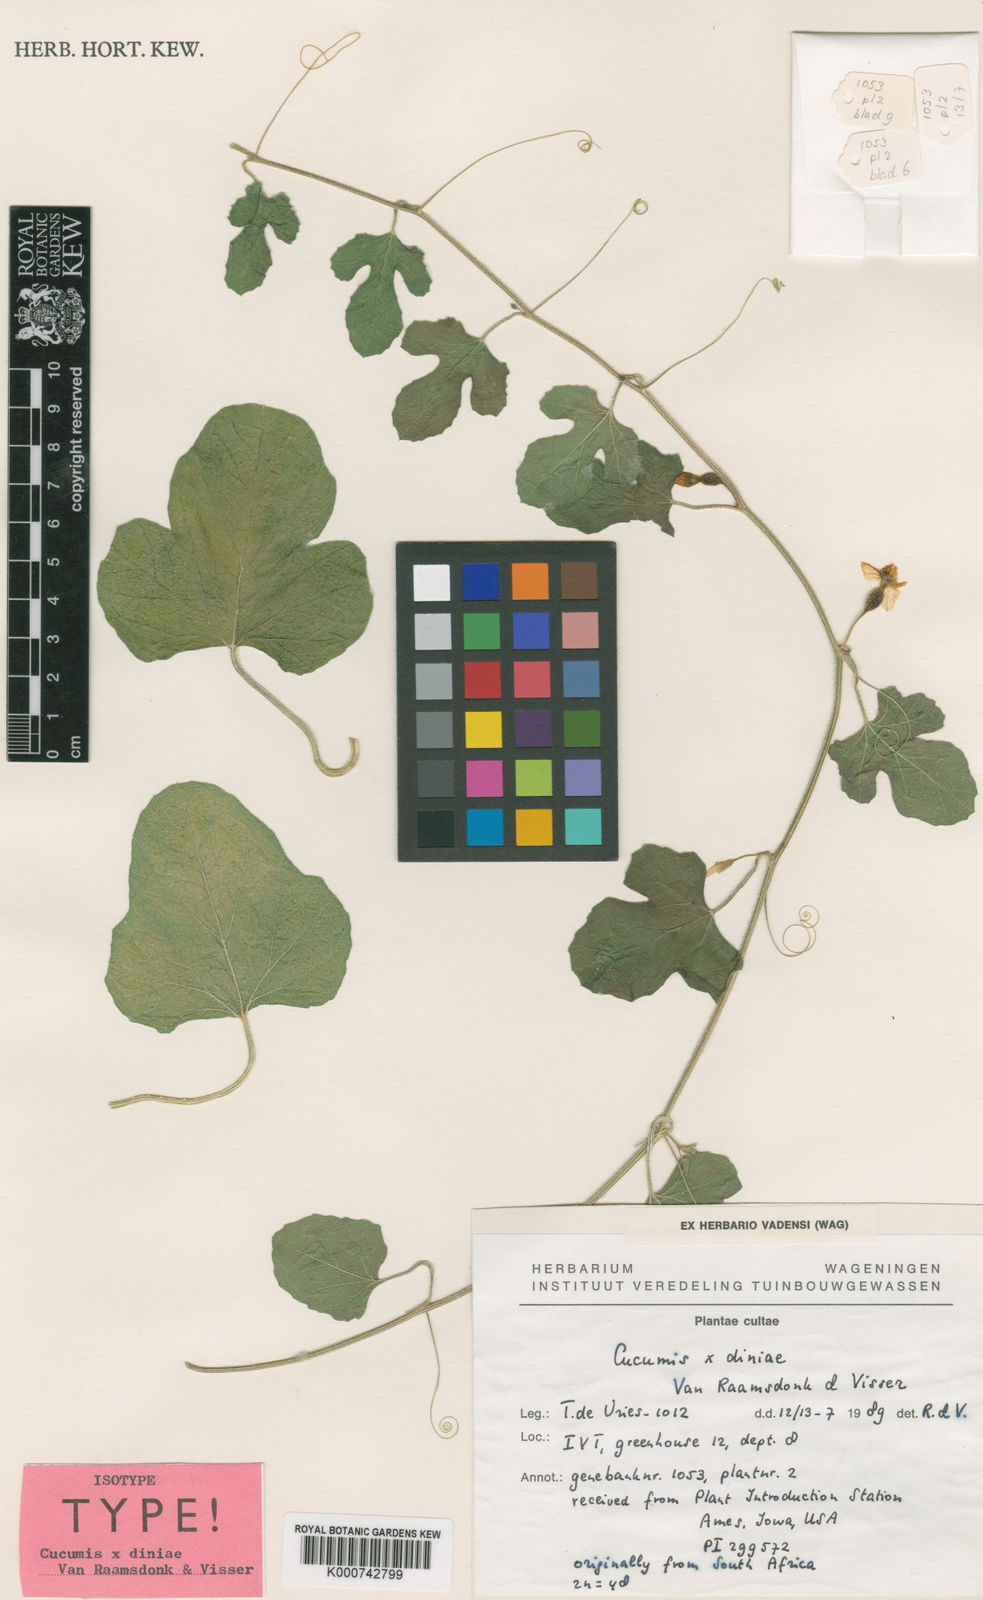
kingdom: Plantae
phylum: Tracheophyta
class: Magnoliopsida
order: Cucurbitales
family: Cucurbitaceae
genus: Cucumis
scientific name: Cucumis zeyheri
